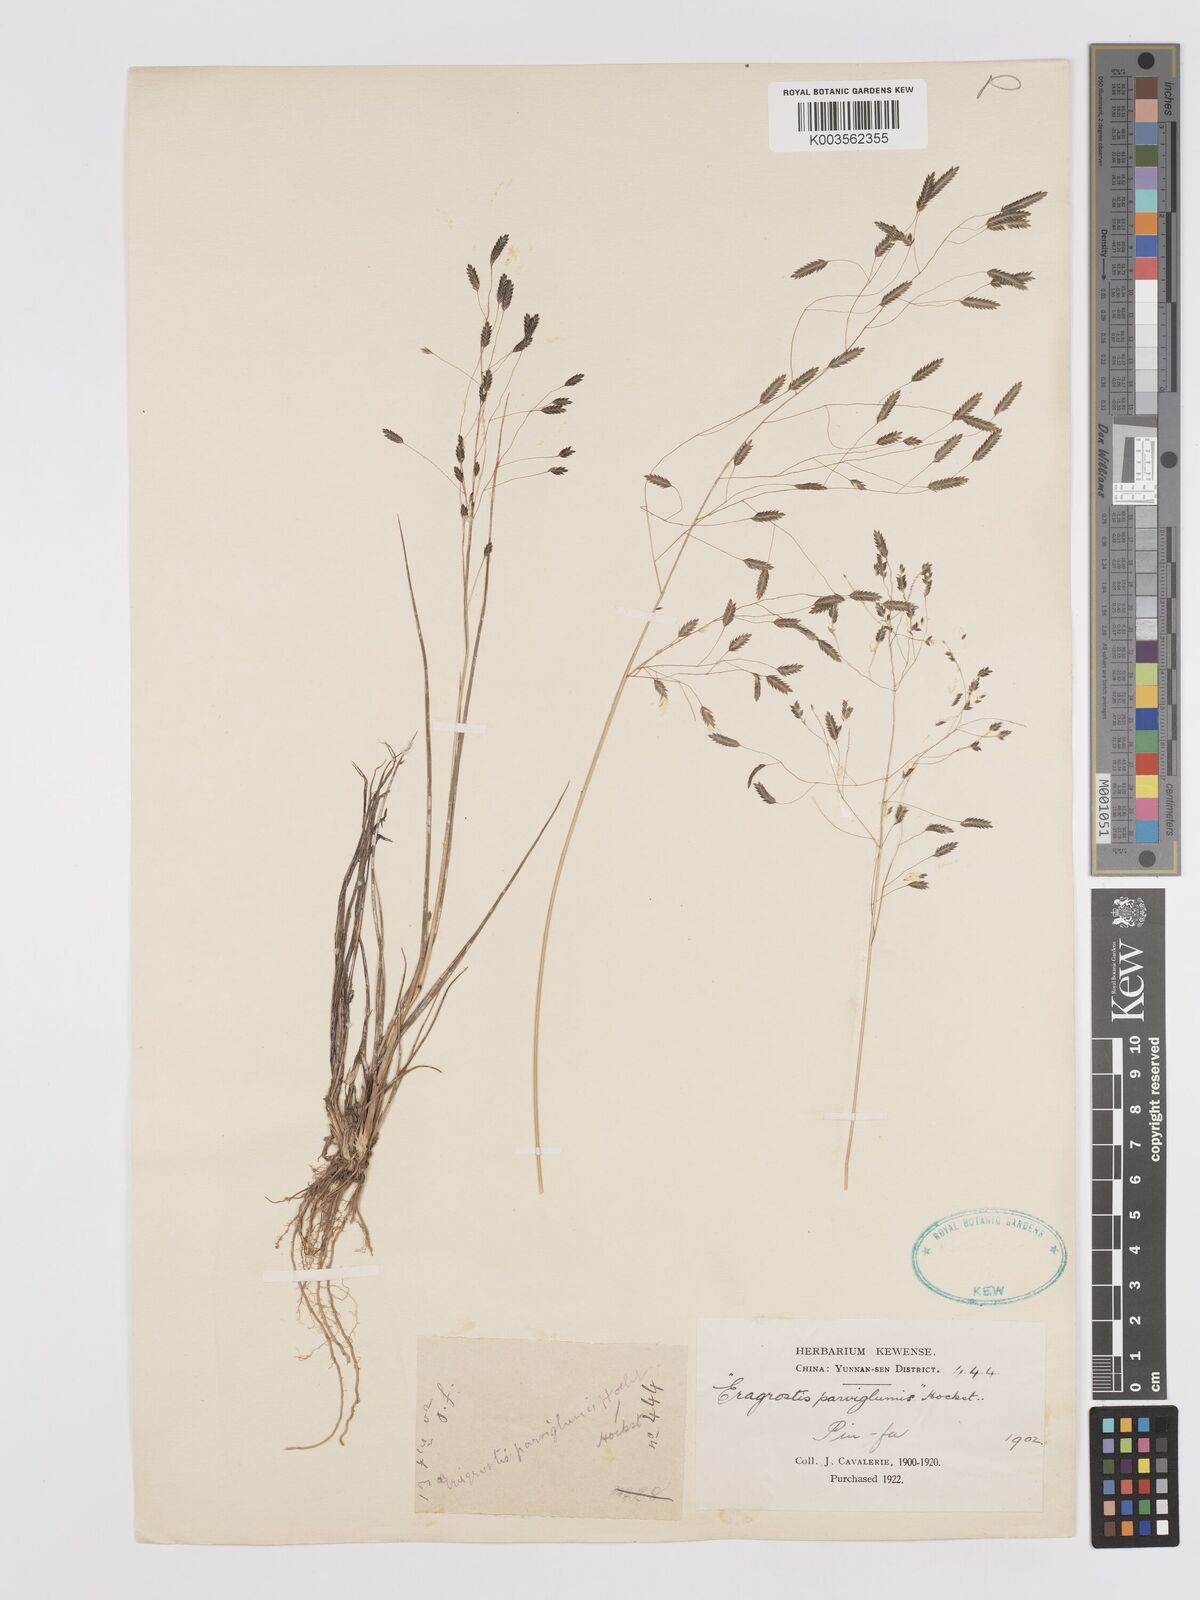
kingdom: Plantae
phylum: Tracheophyta
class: Liliopsida
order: Poales
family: Poaceae
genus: Eragrostis
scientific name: Eragrostis
